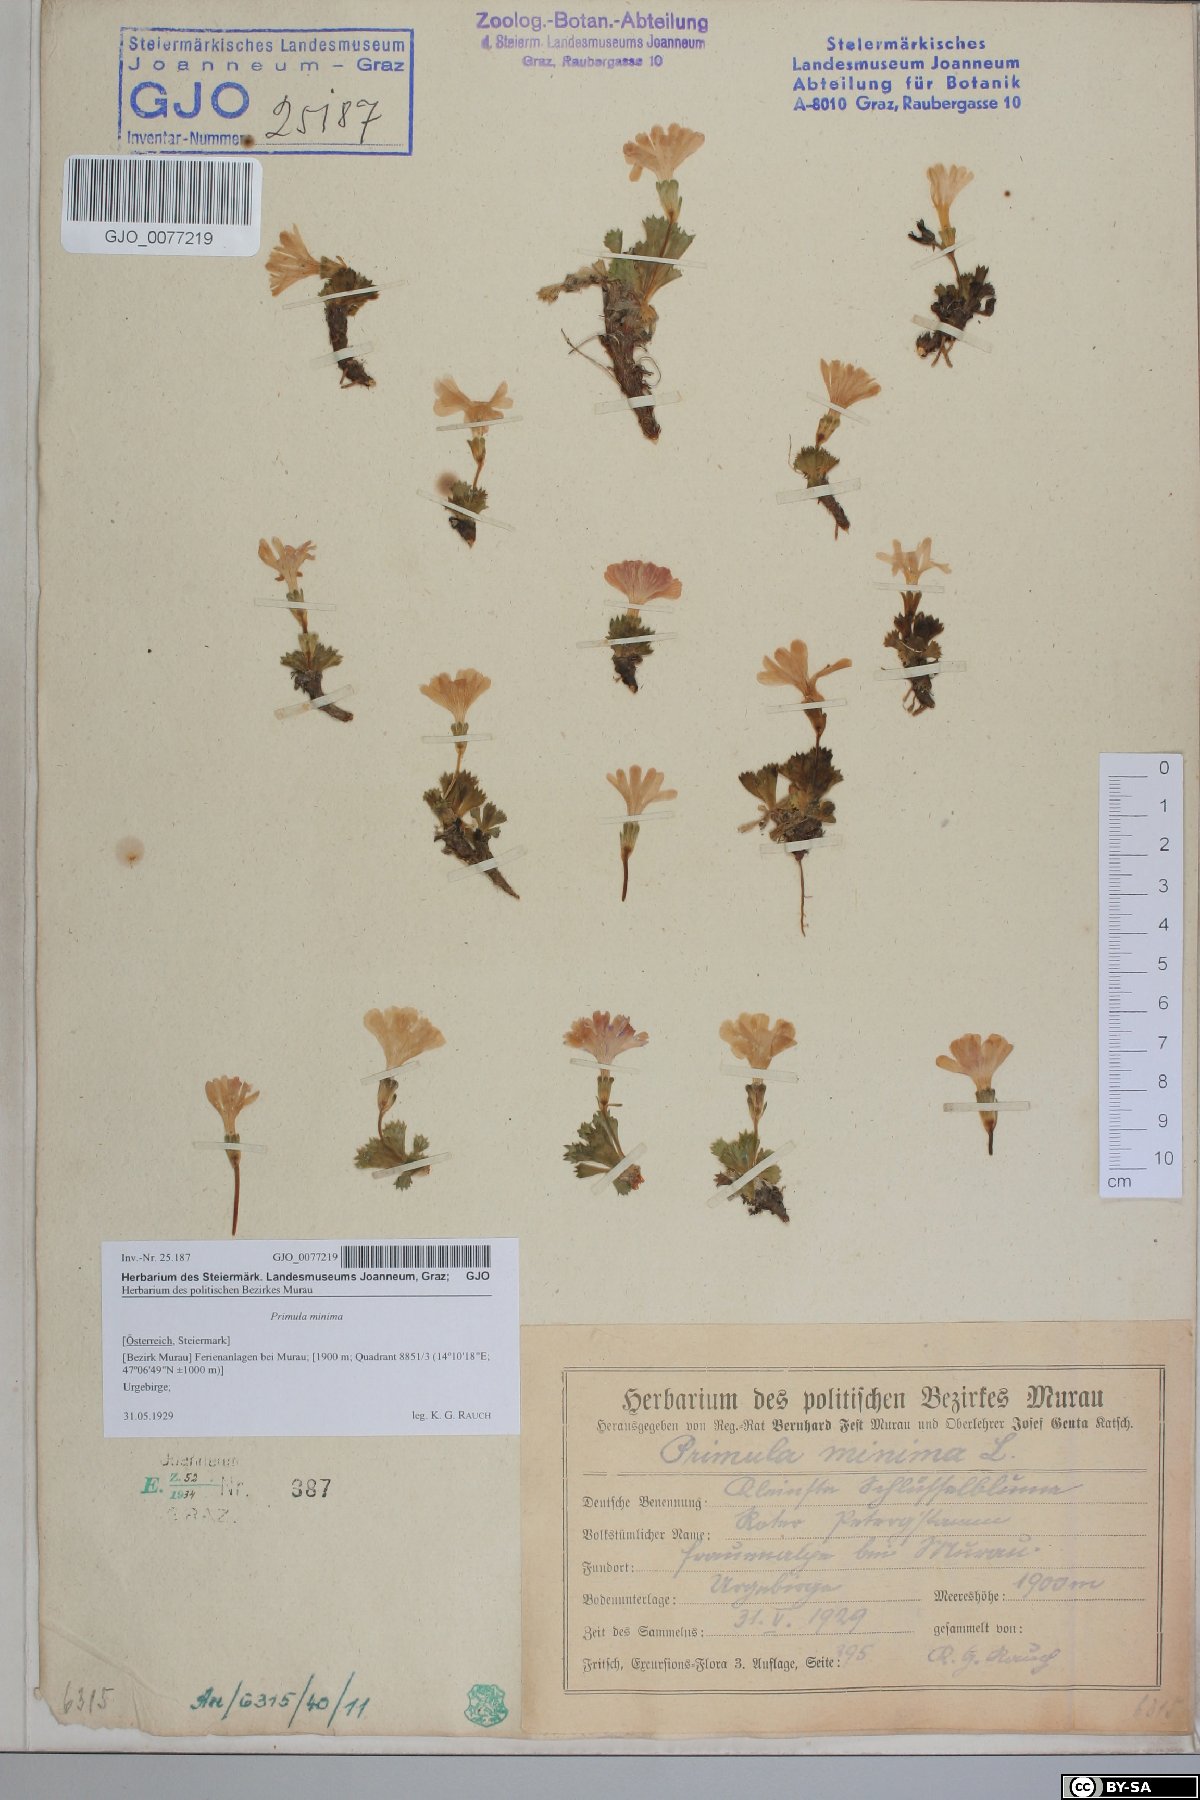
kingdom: Plantae
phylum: Tracheophyta
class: Magnoliopsida
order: Ericales
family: Primulaceae
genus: Primula
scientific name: Primula minima
